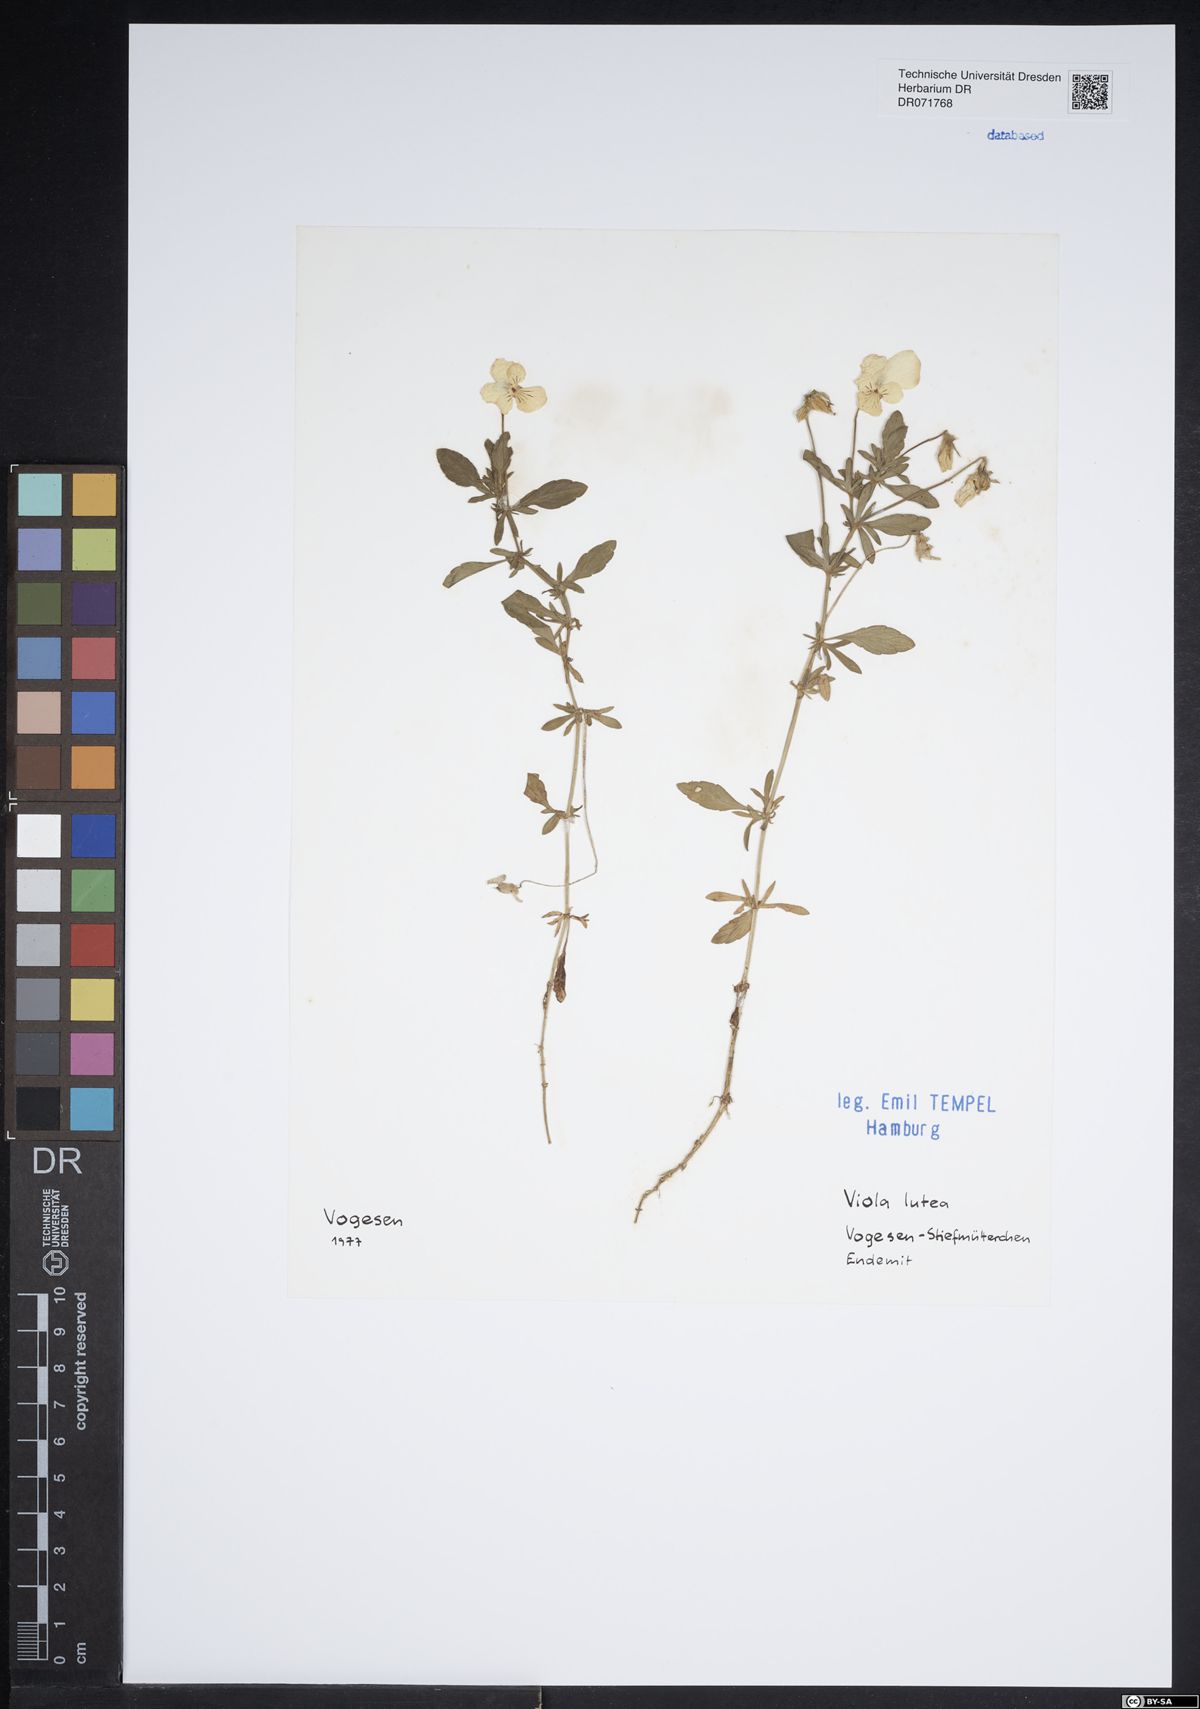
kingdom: Plantae
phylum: Tracheophyta
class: Magnoliopsida
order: Malpighiales
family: Violaceae
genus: Viola
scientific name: Viola lutea
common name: Mountain pansy
